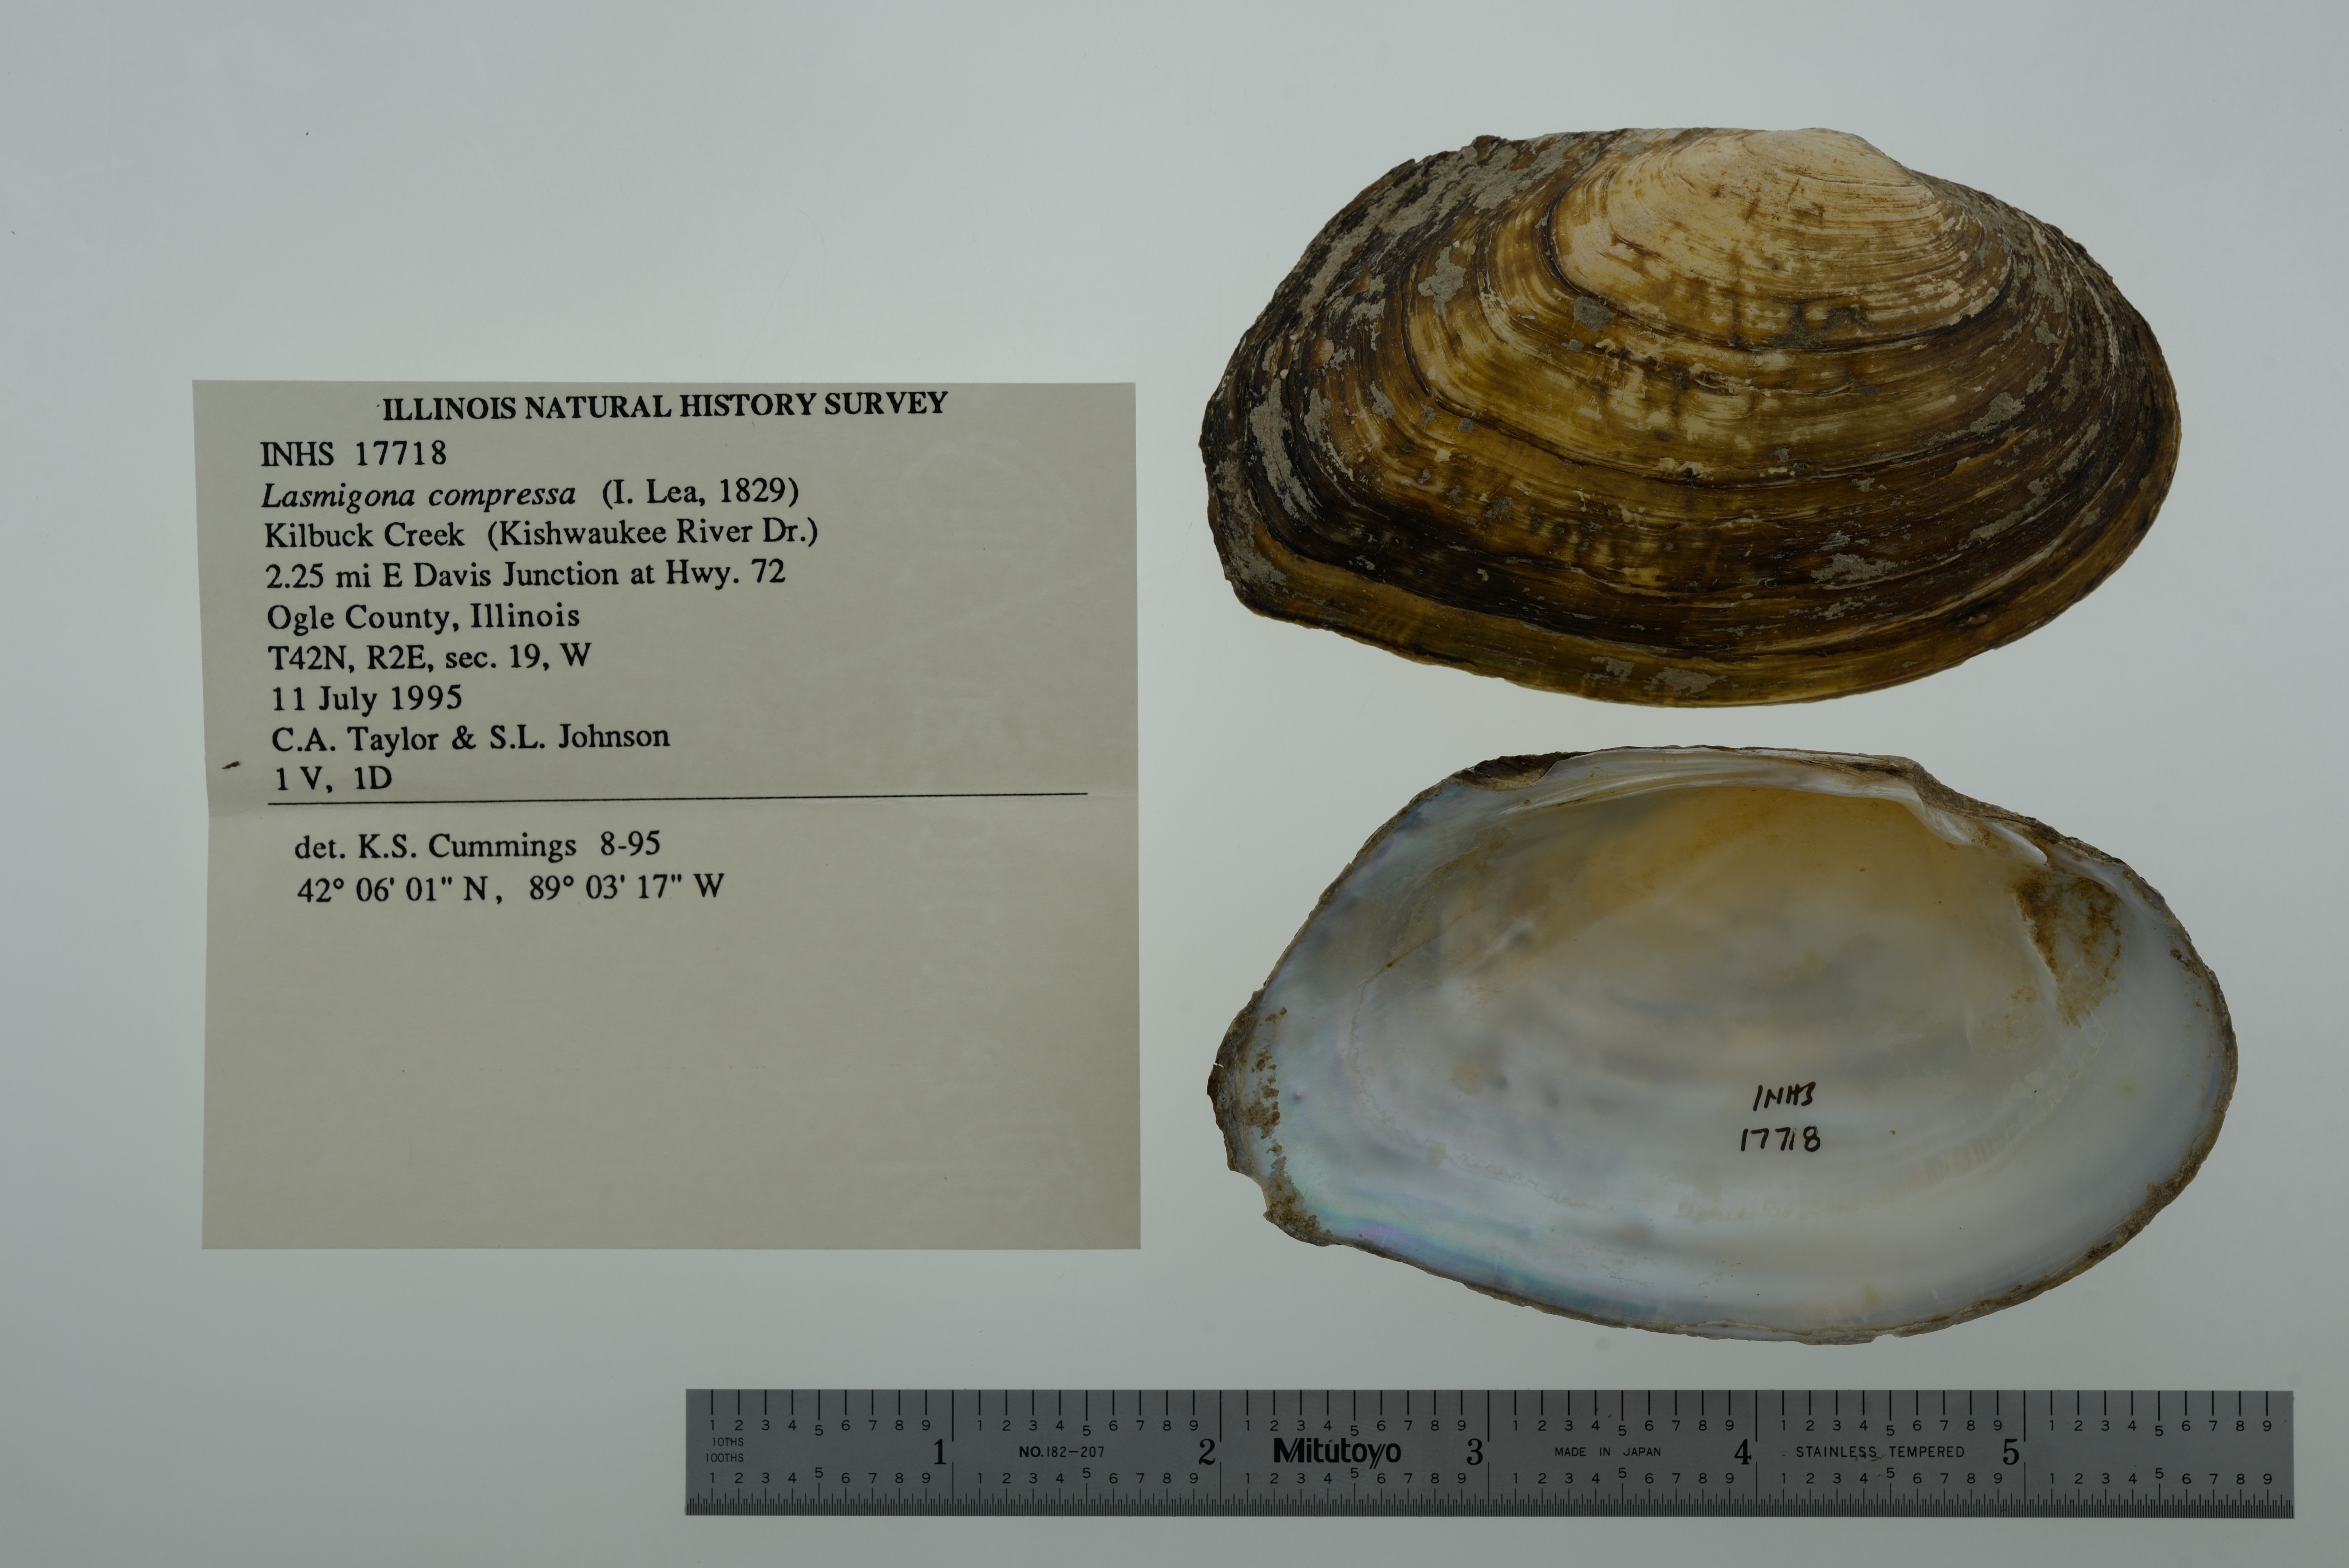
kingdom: Animalia
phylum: Mollusca
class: Bivalvia
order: Unionida
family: Unionidae
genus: Lasmigona
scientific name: Lasmigona compressa
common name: Creek heelsplitter
